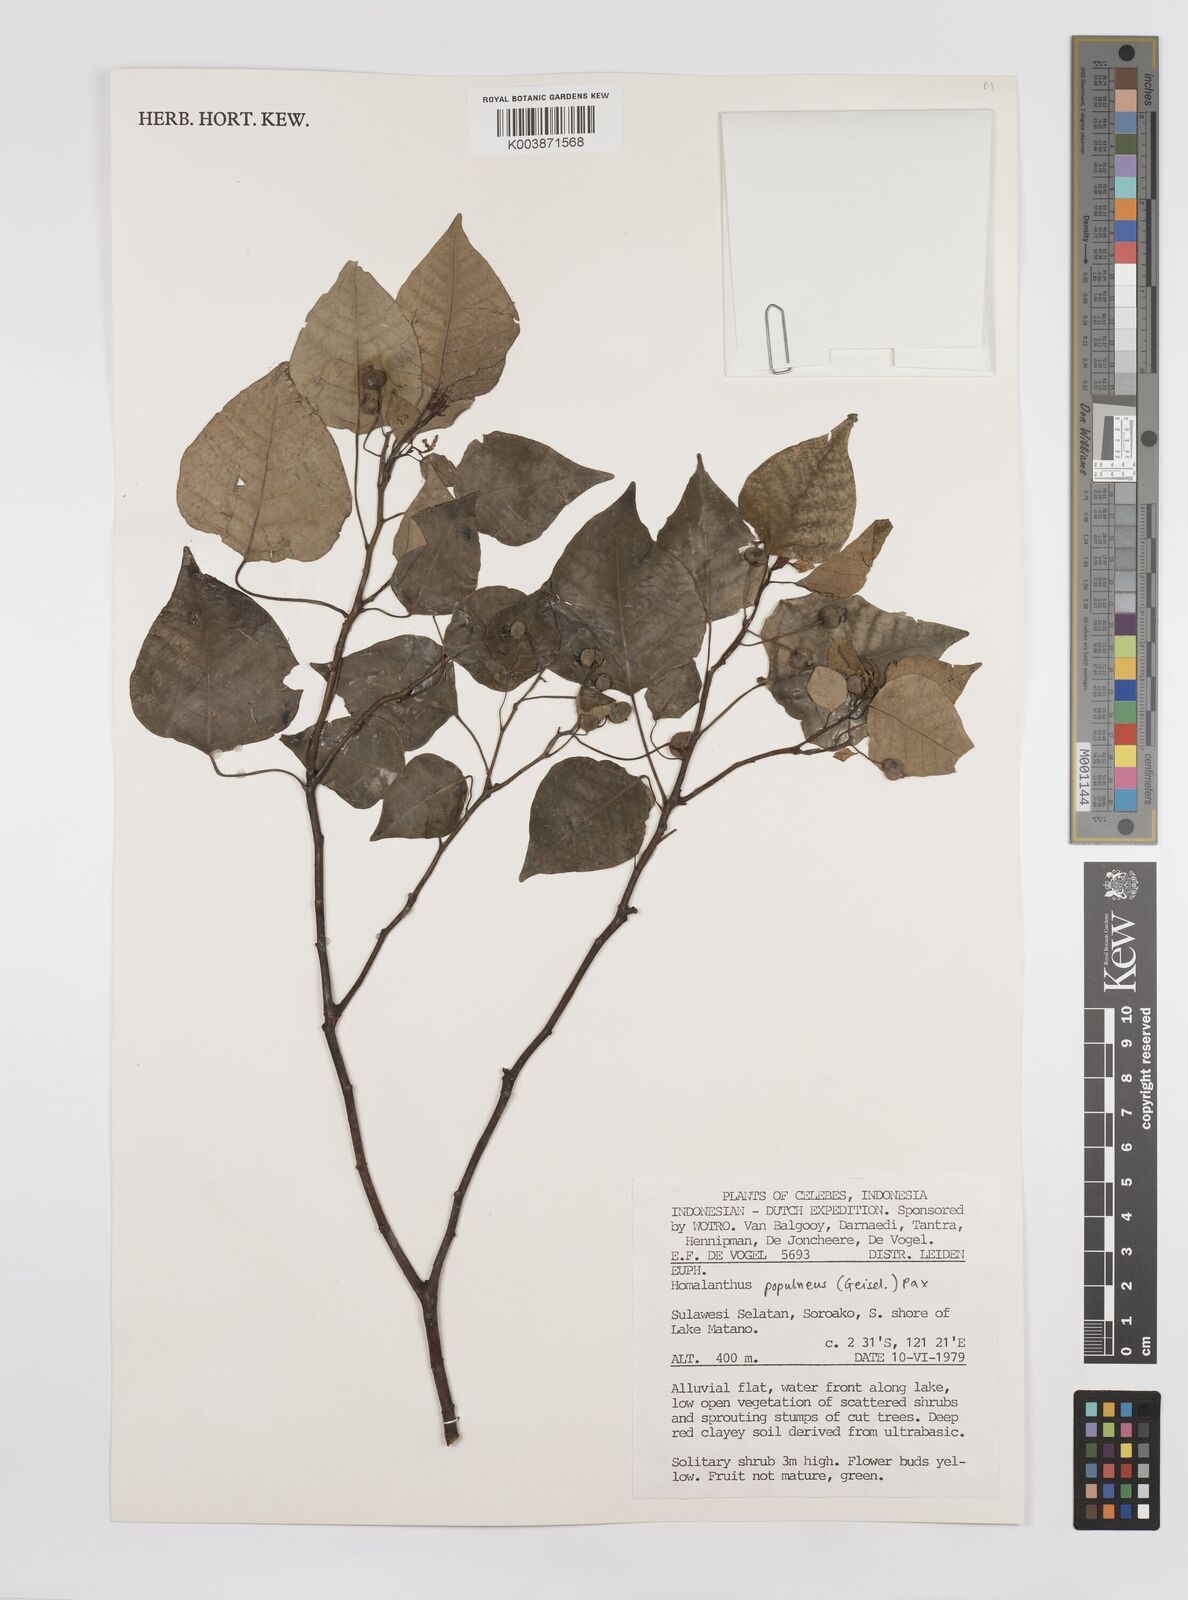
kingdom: Plantae
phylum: Tracheophyta
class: Magnoliopsida
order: Malpighiales
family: Euphorbiaceae
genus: Homalanthus
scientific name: Homalanthus populneus
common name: Spurge
